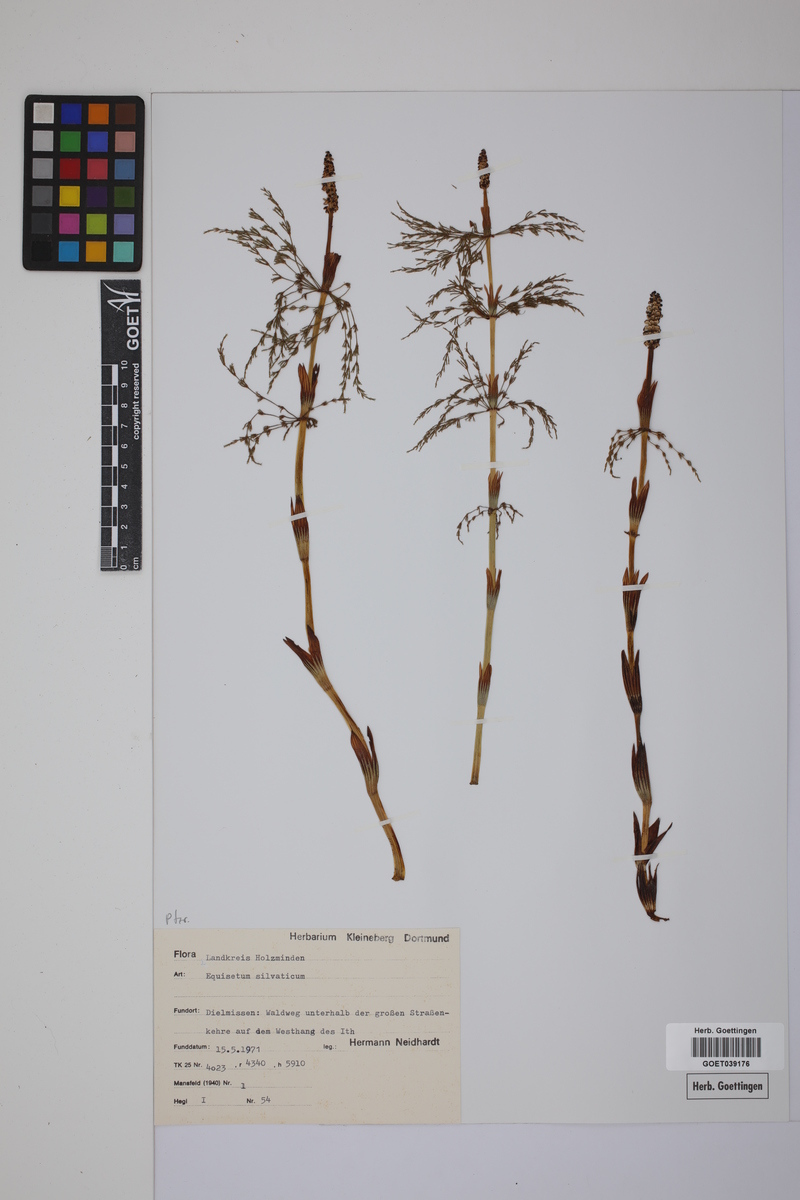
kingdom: Plantae
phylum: Tracheophyta
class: Polypodiopsida
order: Equisetales
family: Equisetaceae
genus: Equisetum
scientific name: Equisetum sylvaticum
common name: Wood horsetail
